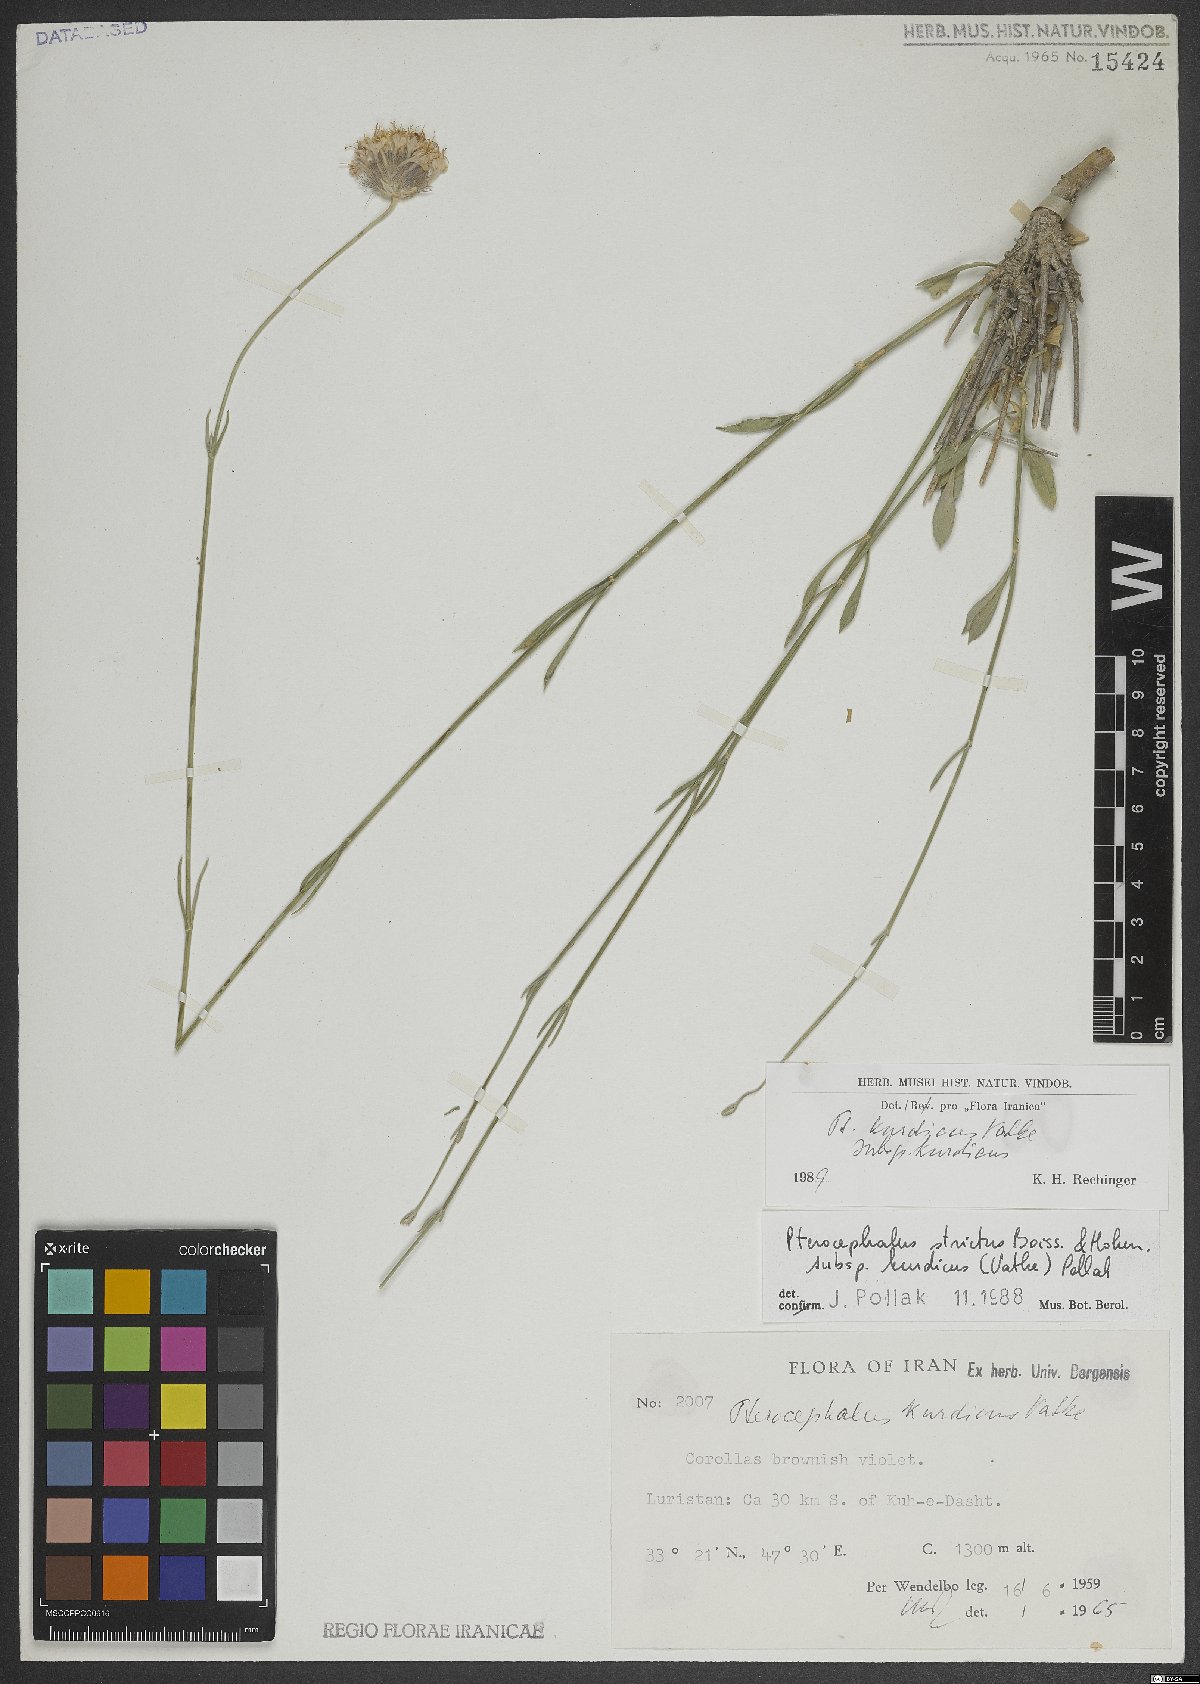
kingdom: Plantae
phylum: Tracheophyta
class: Magnoliopsida
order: Dipsacales
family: Caprifoliaceae
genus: Pterocephalus
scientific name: Pterocephalus kurdicus
